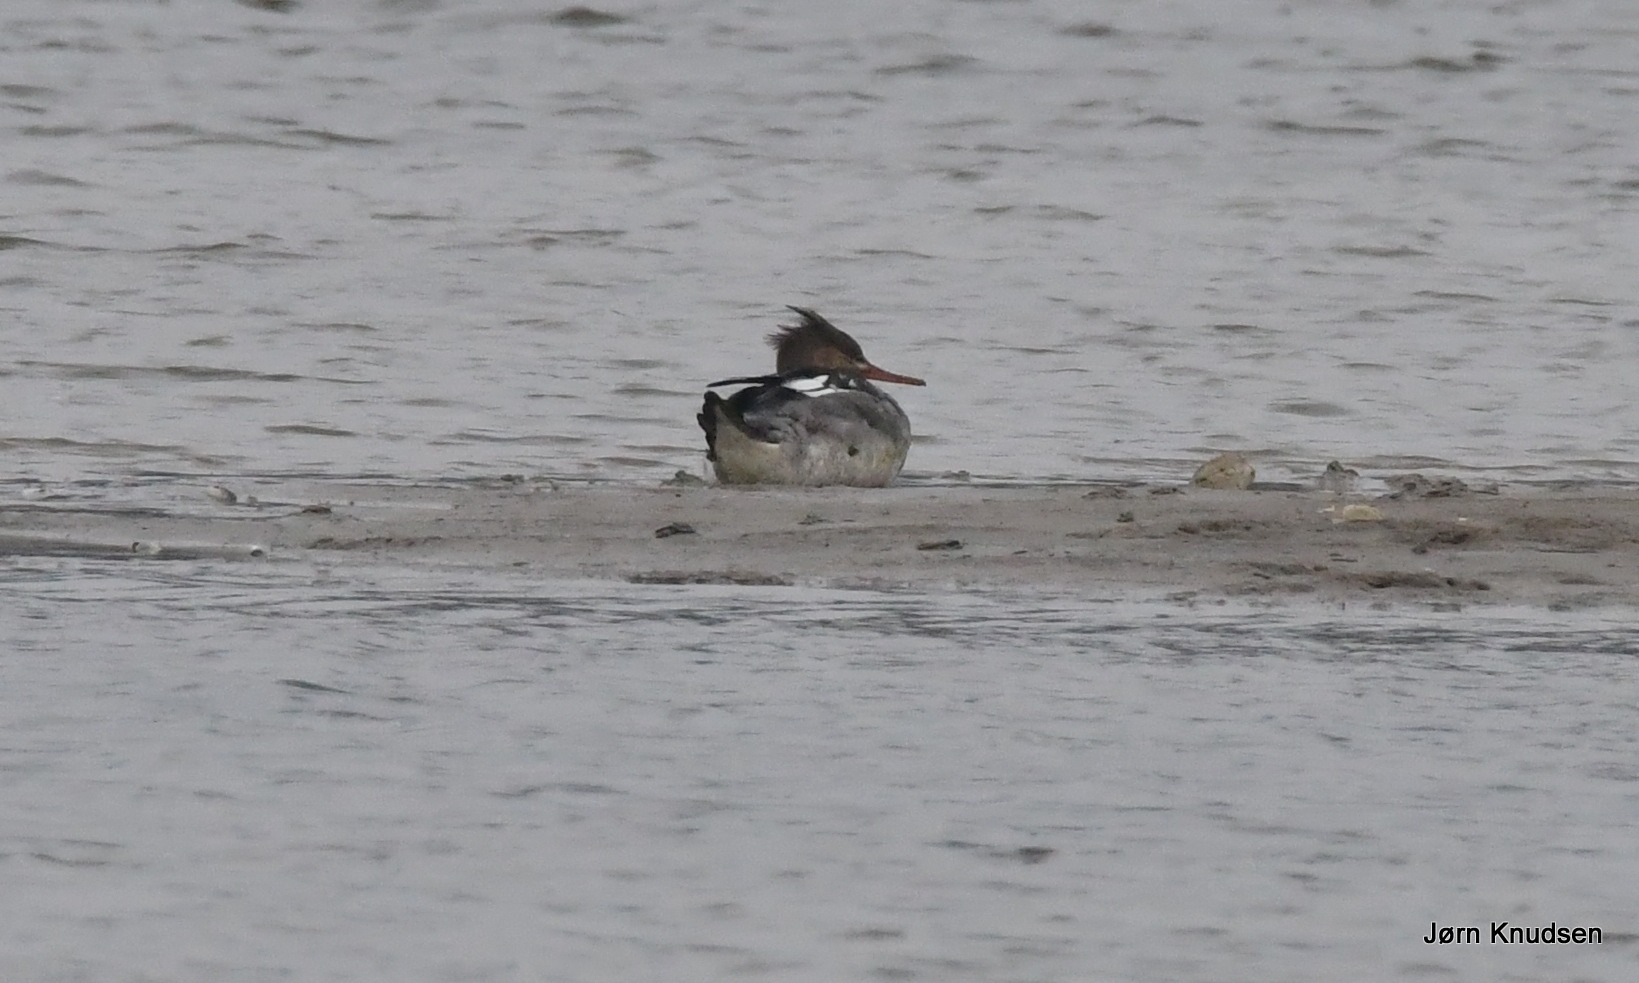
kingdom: Animalia
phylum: Chordata
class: Aves
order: Anseriformes
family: Anatidae
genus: Mergus
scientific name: Mergus serrator
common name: Toppet skallesluger
